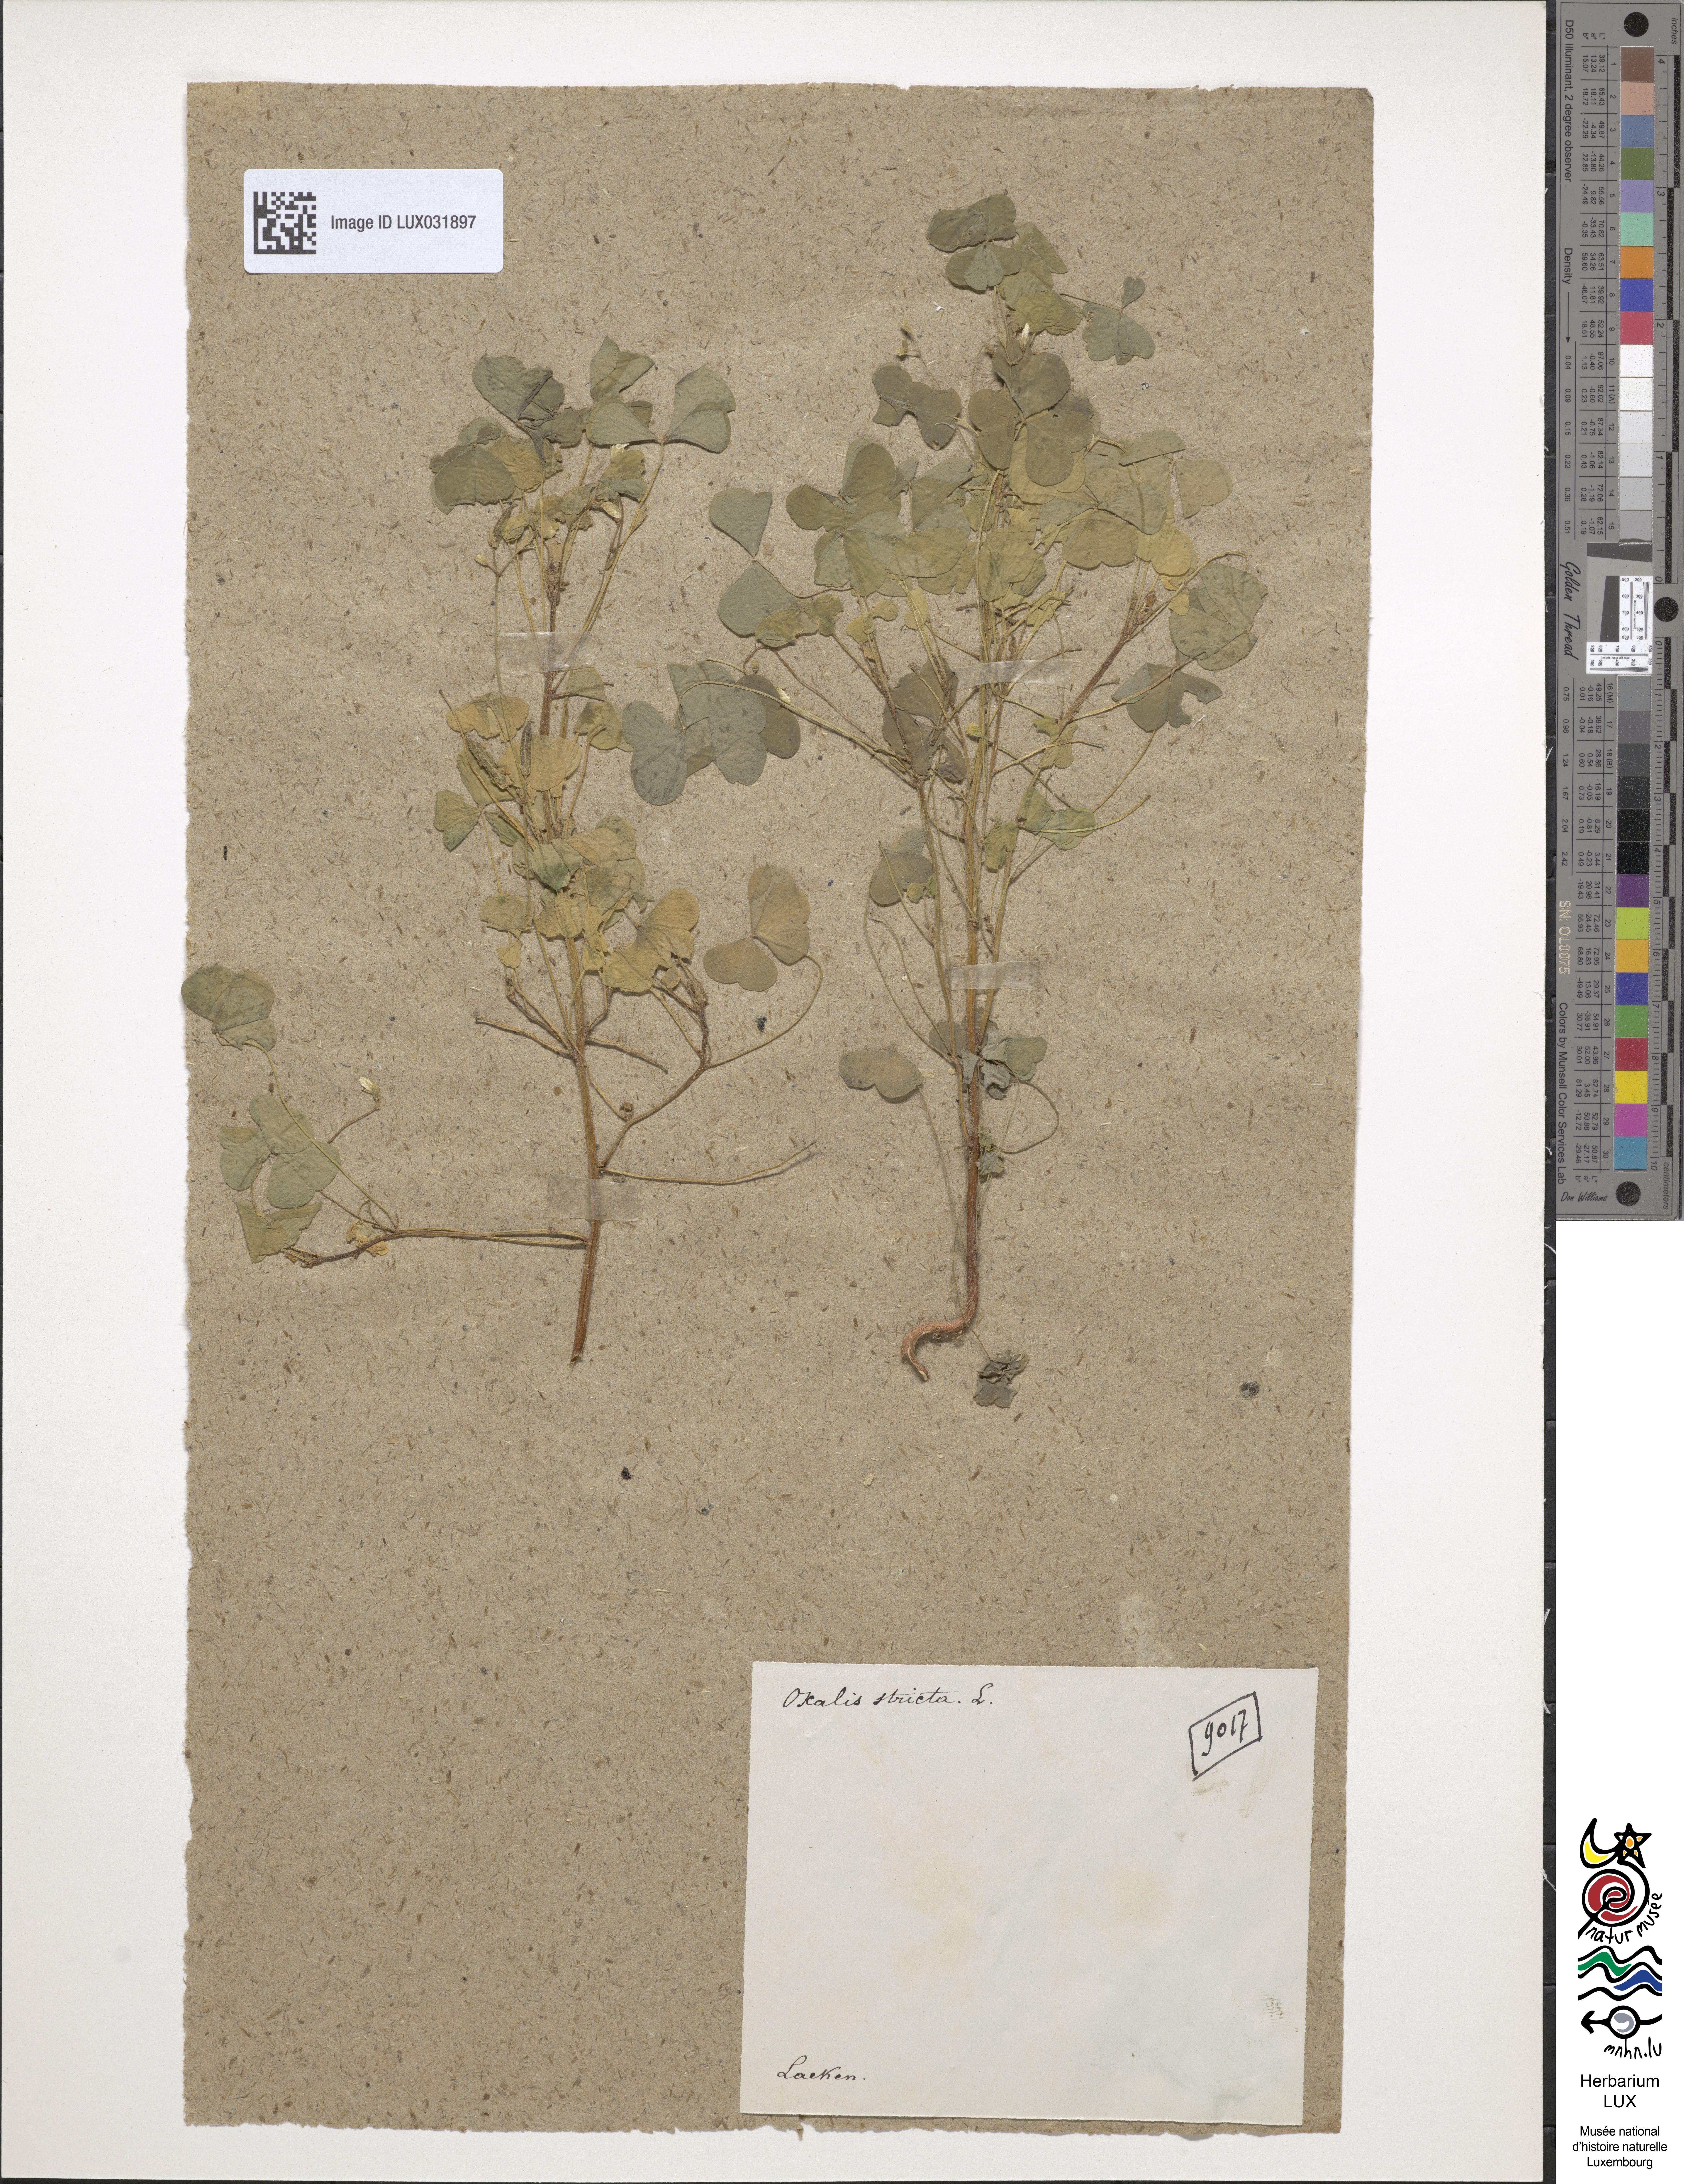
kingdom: Plantae
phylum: Tracheophyta
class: Magnoliopsida
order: Oxalidales
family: Oxalidaceae
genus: Oxalis
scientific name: Oxalis stricta
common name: Upright yellow-sorrel
